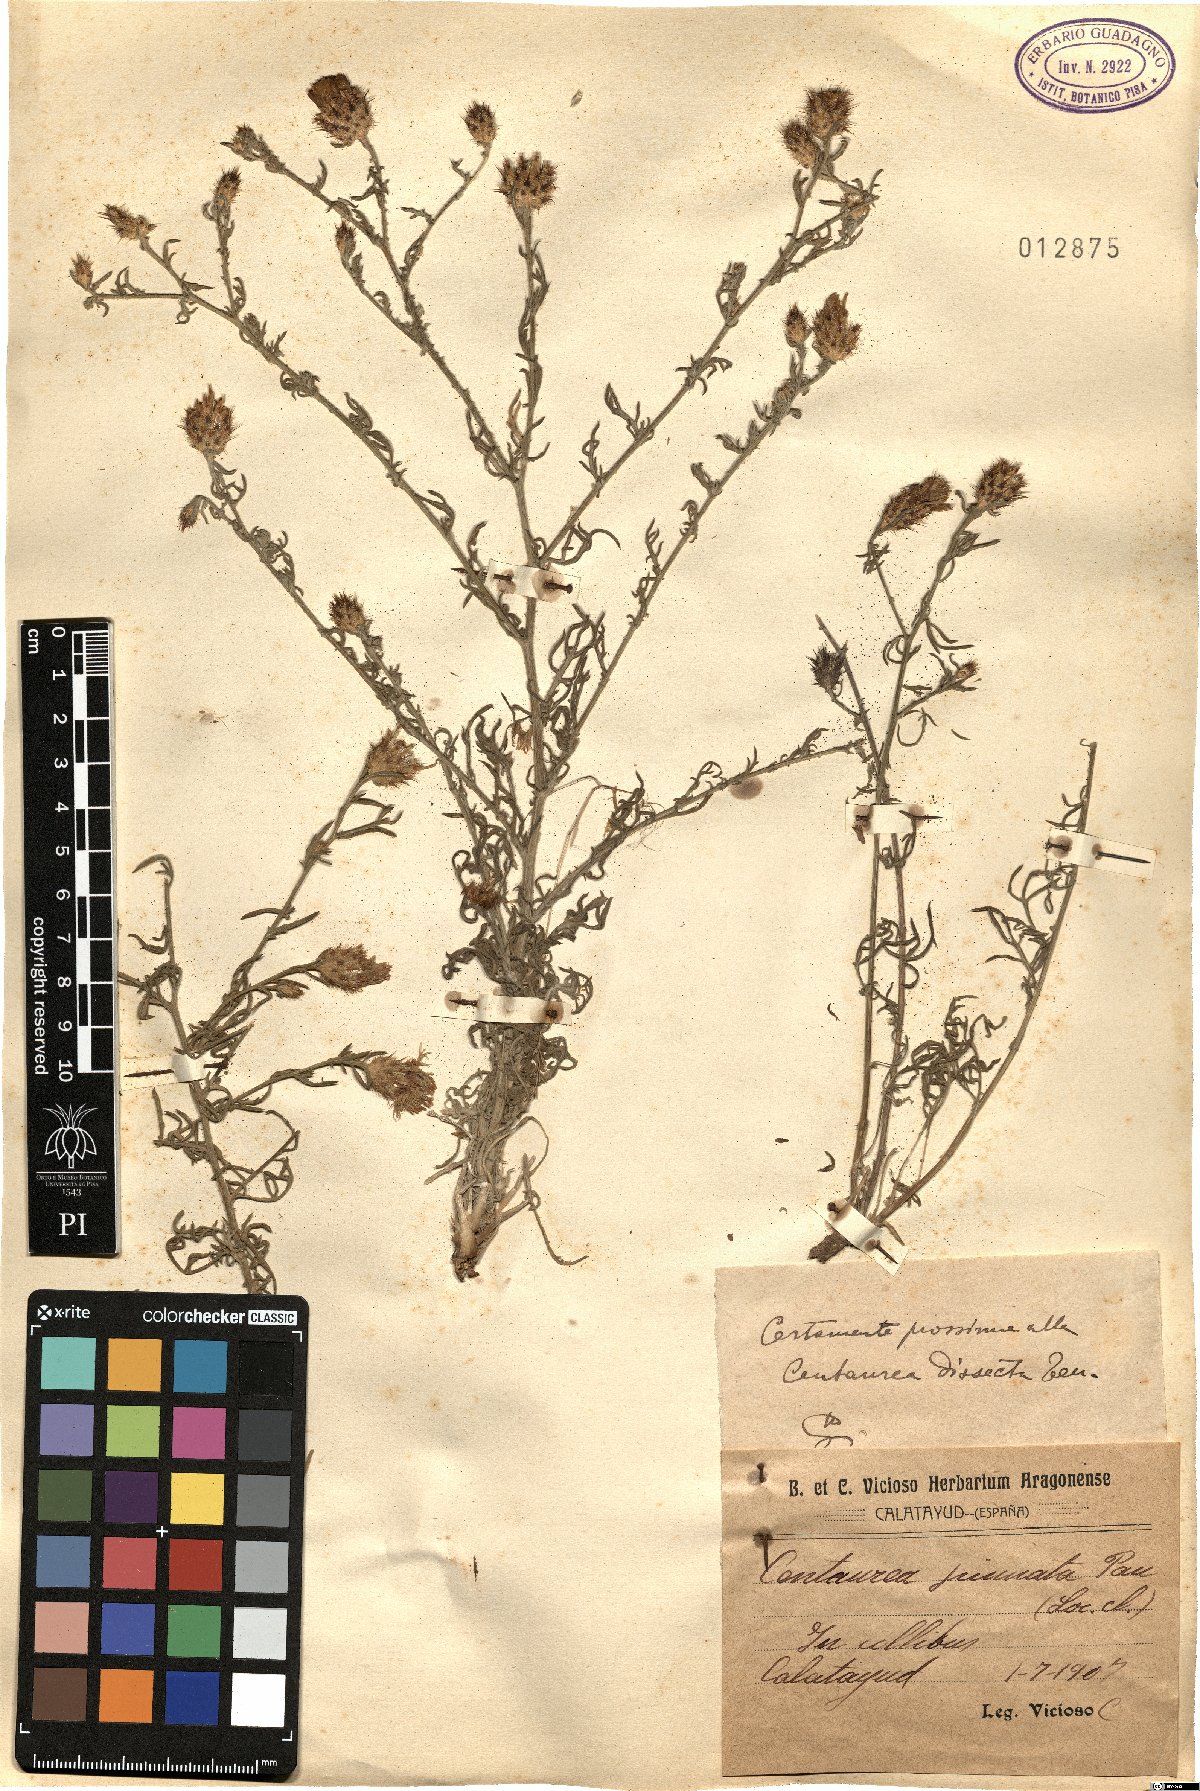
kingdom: Plantae
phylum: Tracheophyta
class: Magnoliopsida
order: Asterales
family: Asteraceae
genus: Centaurea
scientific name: Centaurea pinnata
